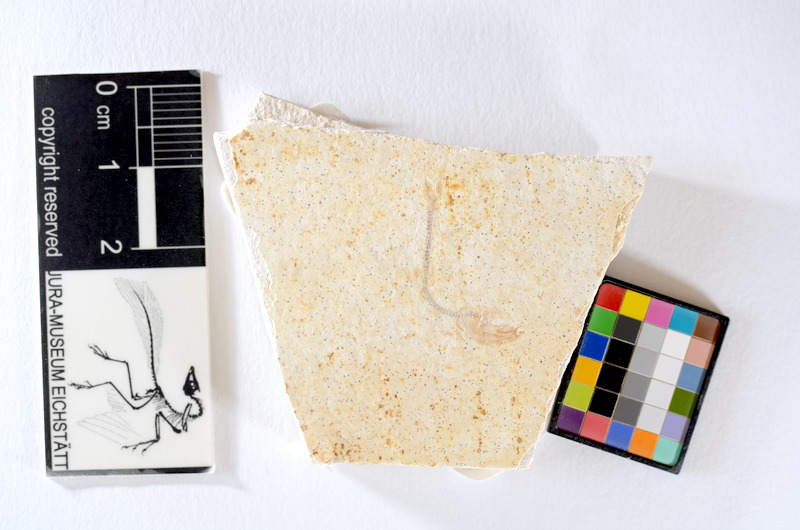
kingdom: Animalia
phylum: Chordata
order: Salmoniformes
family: Orthogonikleithridae
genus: Orthogonikleithrus
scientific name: Orthogonikleithrus hoelli
